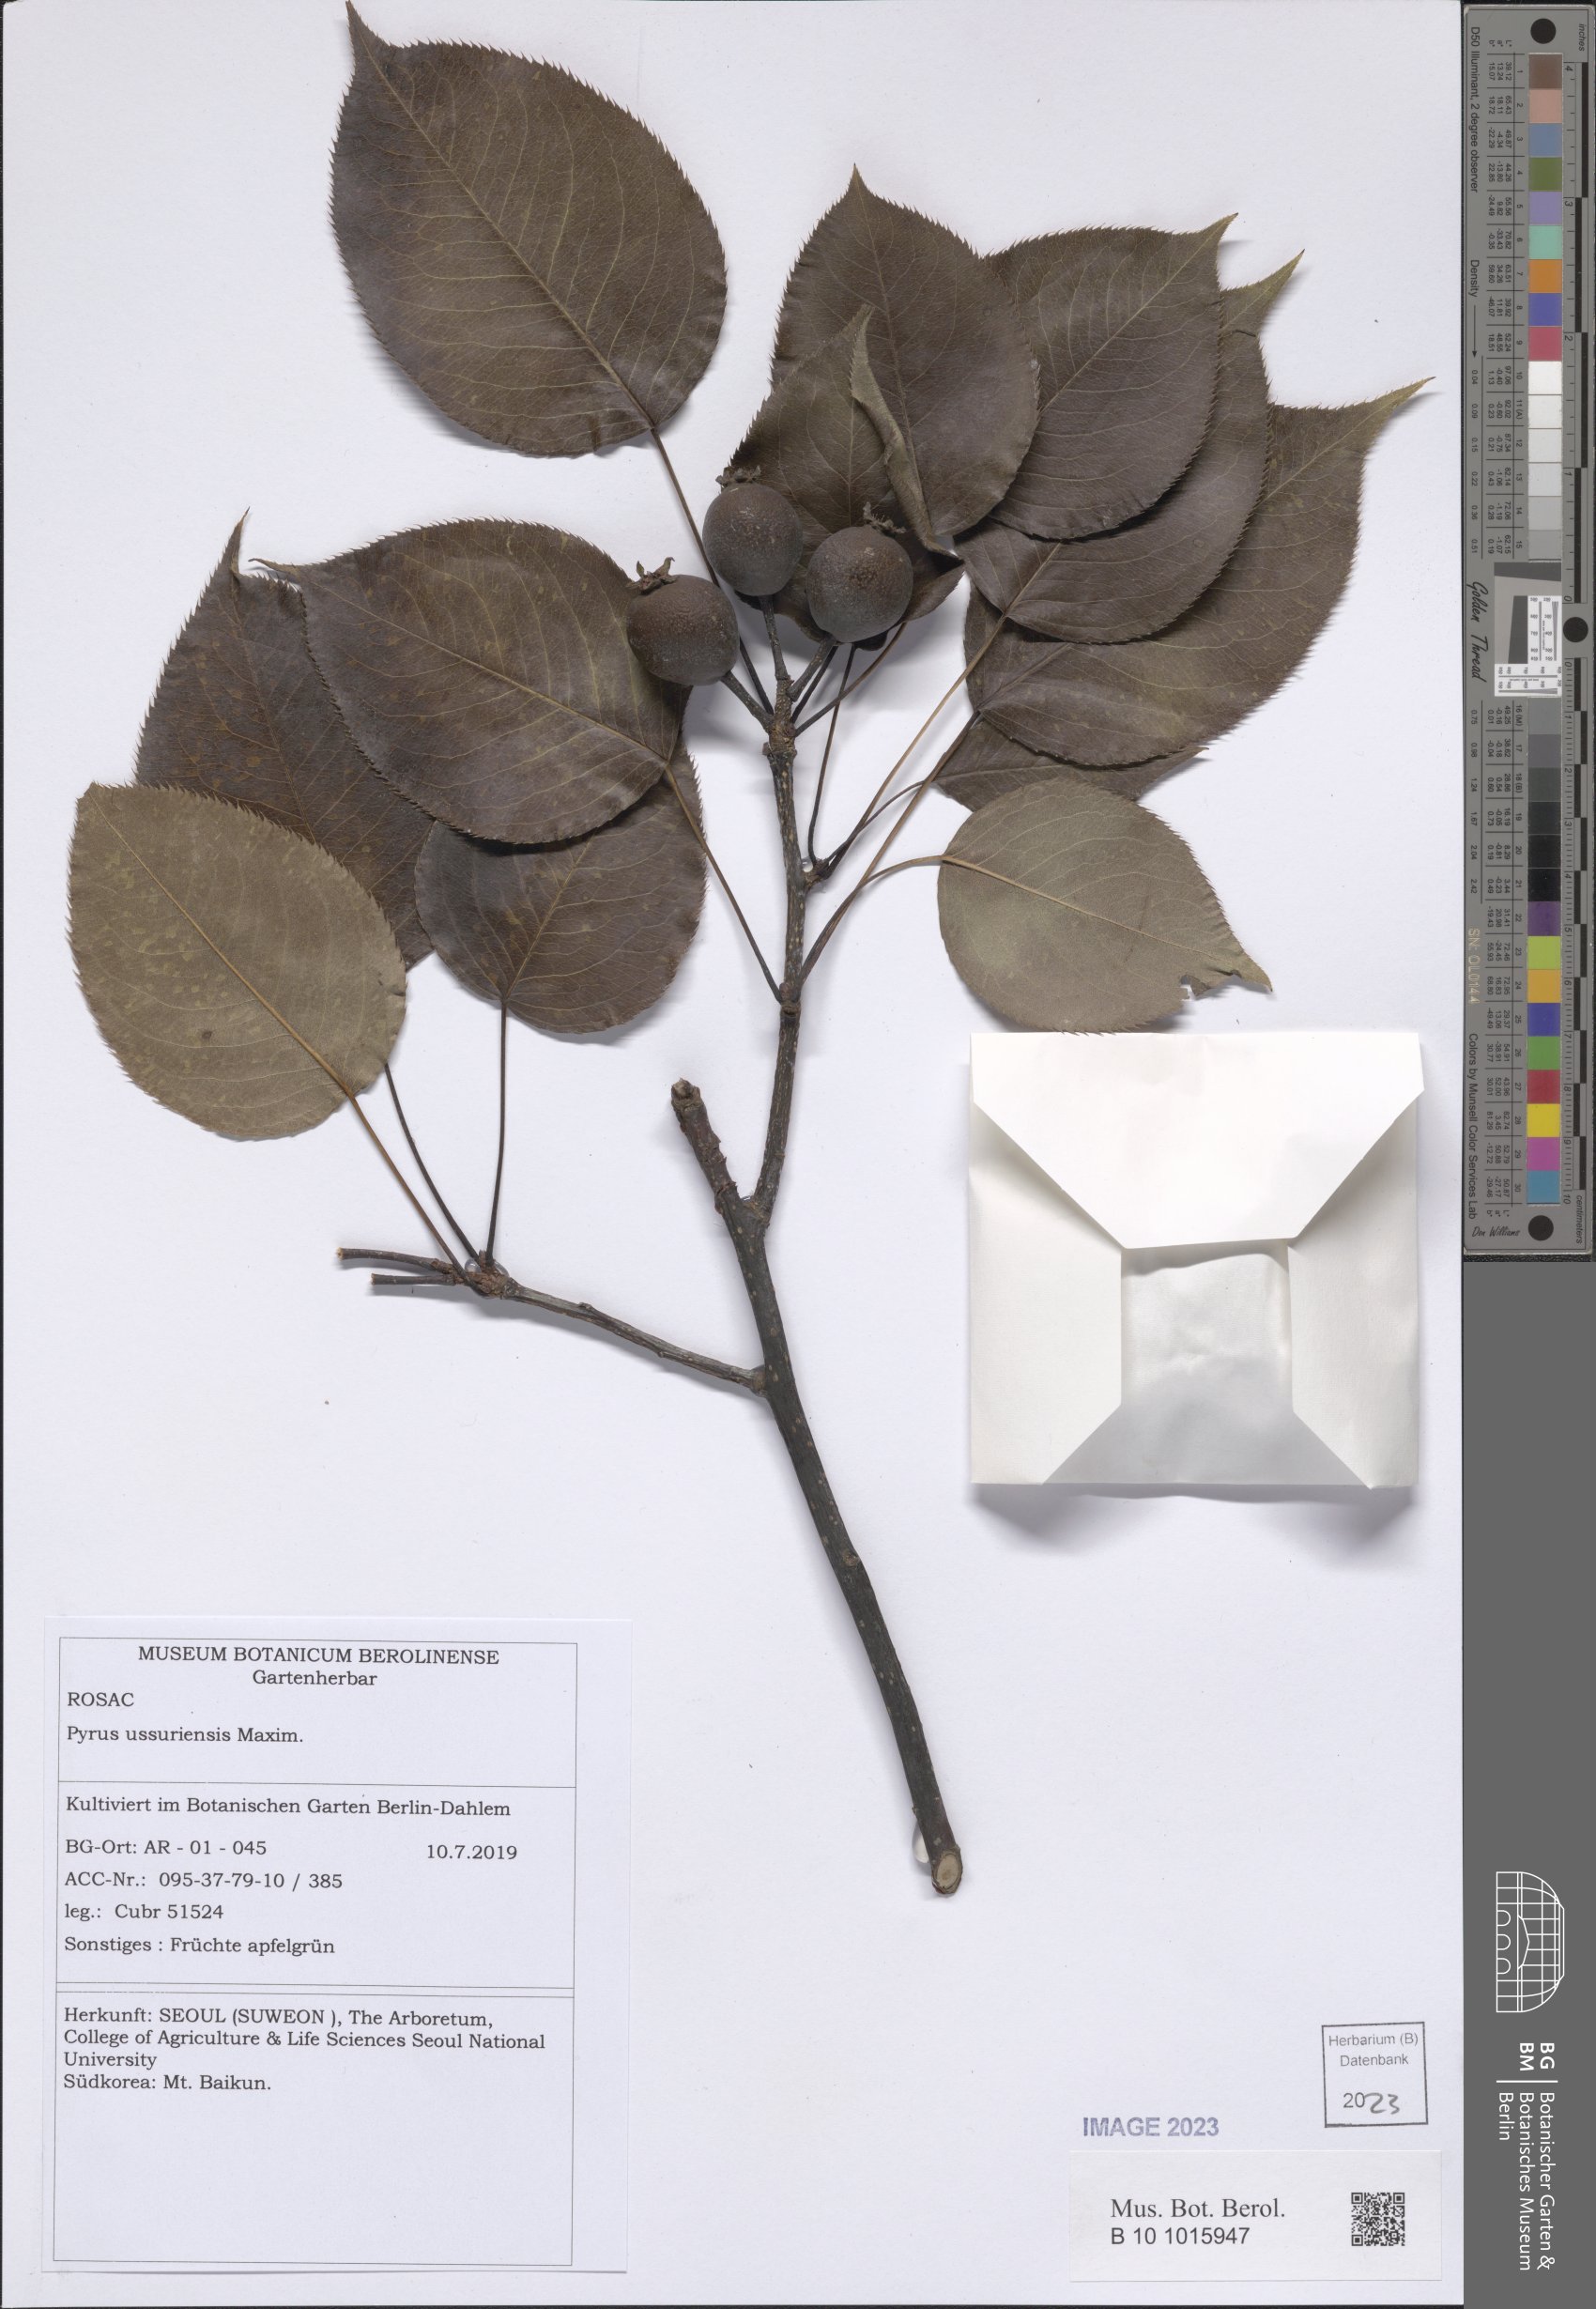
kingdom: Plantae
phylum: Tracheophyta
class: Magnoliopsida
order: Rosales
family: Rosaceae
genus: Pyrus
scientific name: Pyrus ussuriensis
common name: Harbin pear
